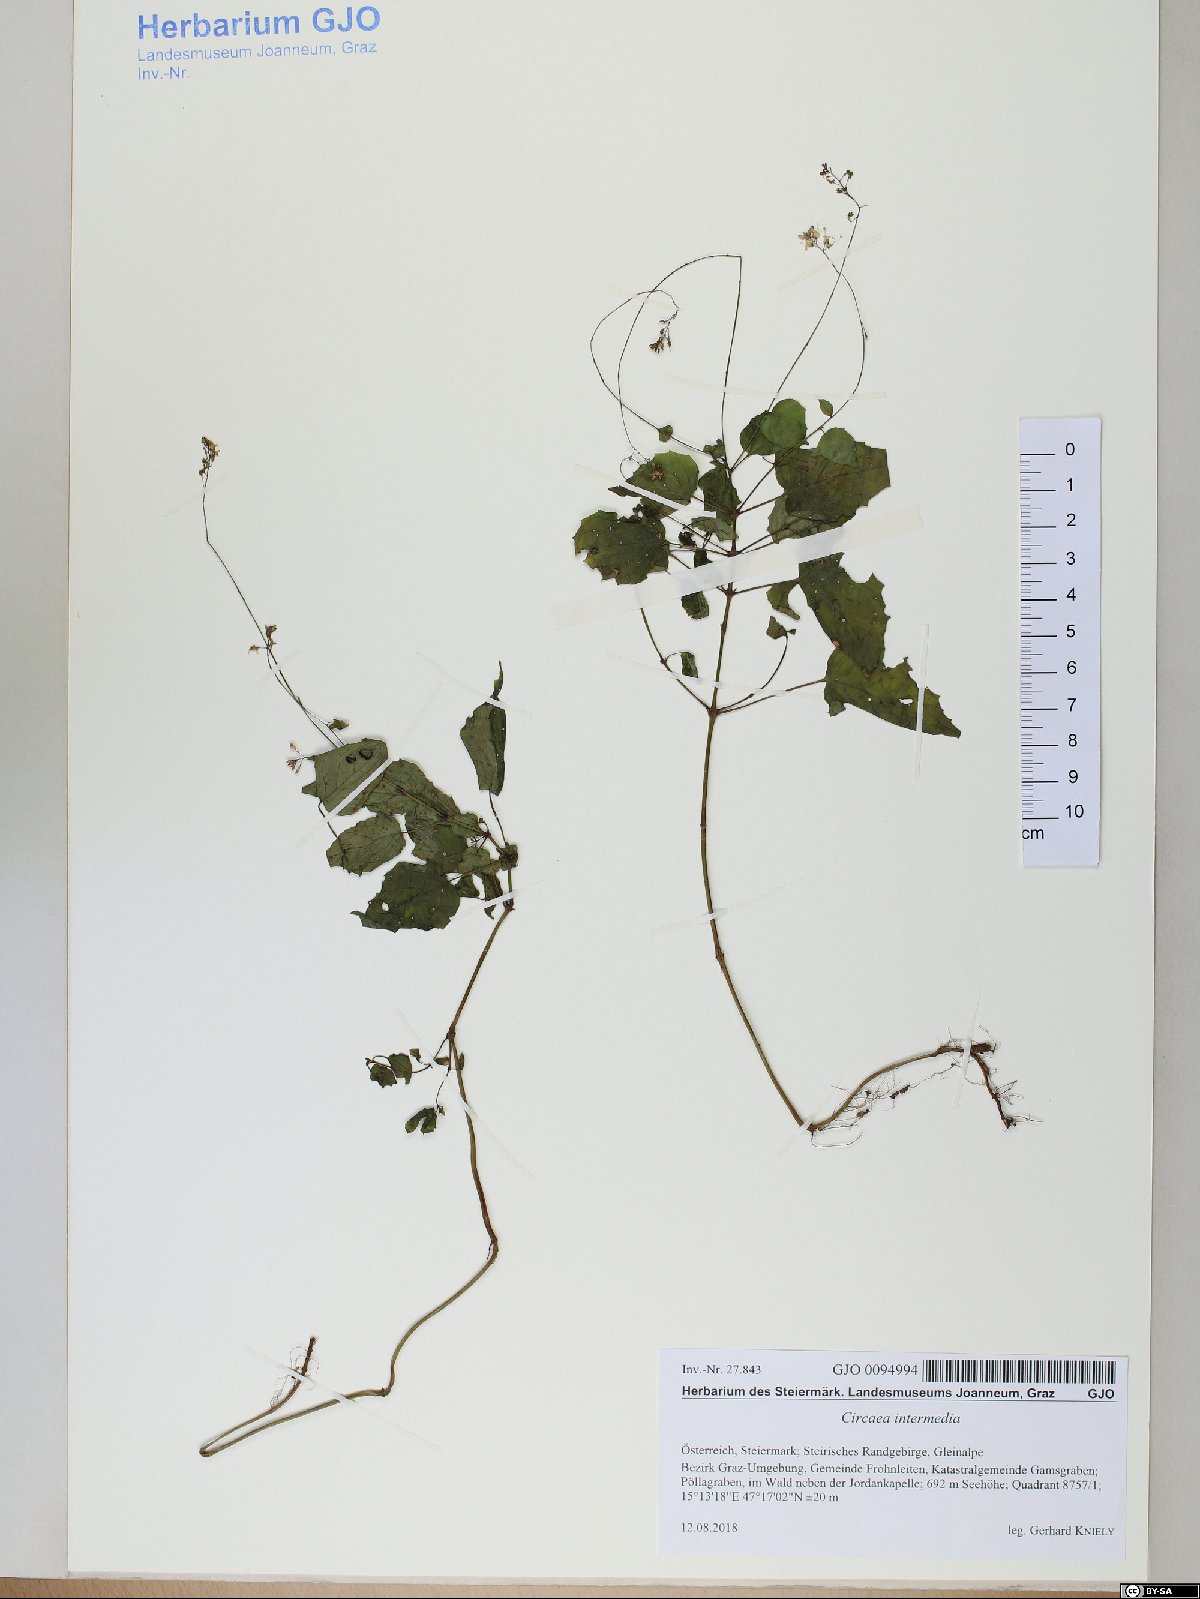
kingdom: Plantae
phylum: Tracheophyta
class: Magnoliopsida
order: Myrtales
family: Onagraceae
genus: Circaea
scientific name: Circaea intermedia
